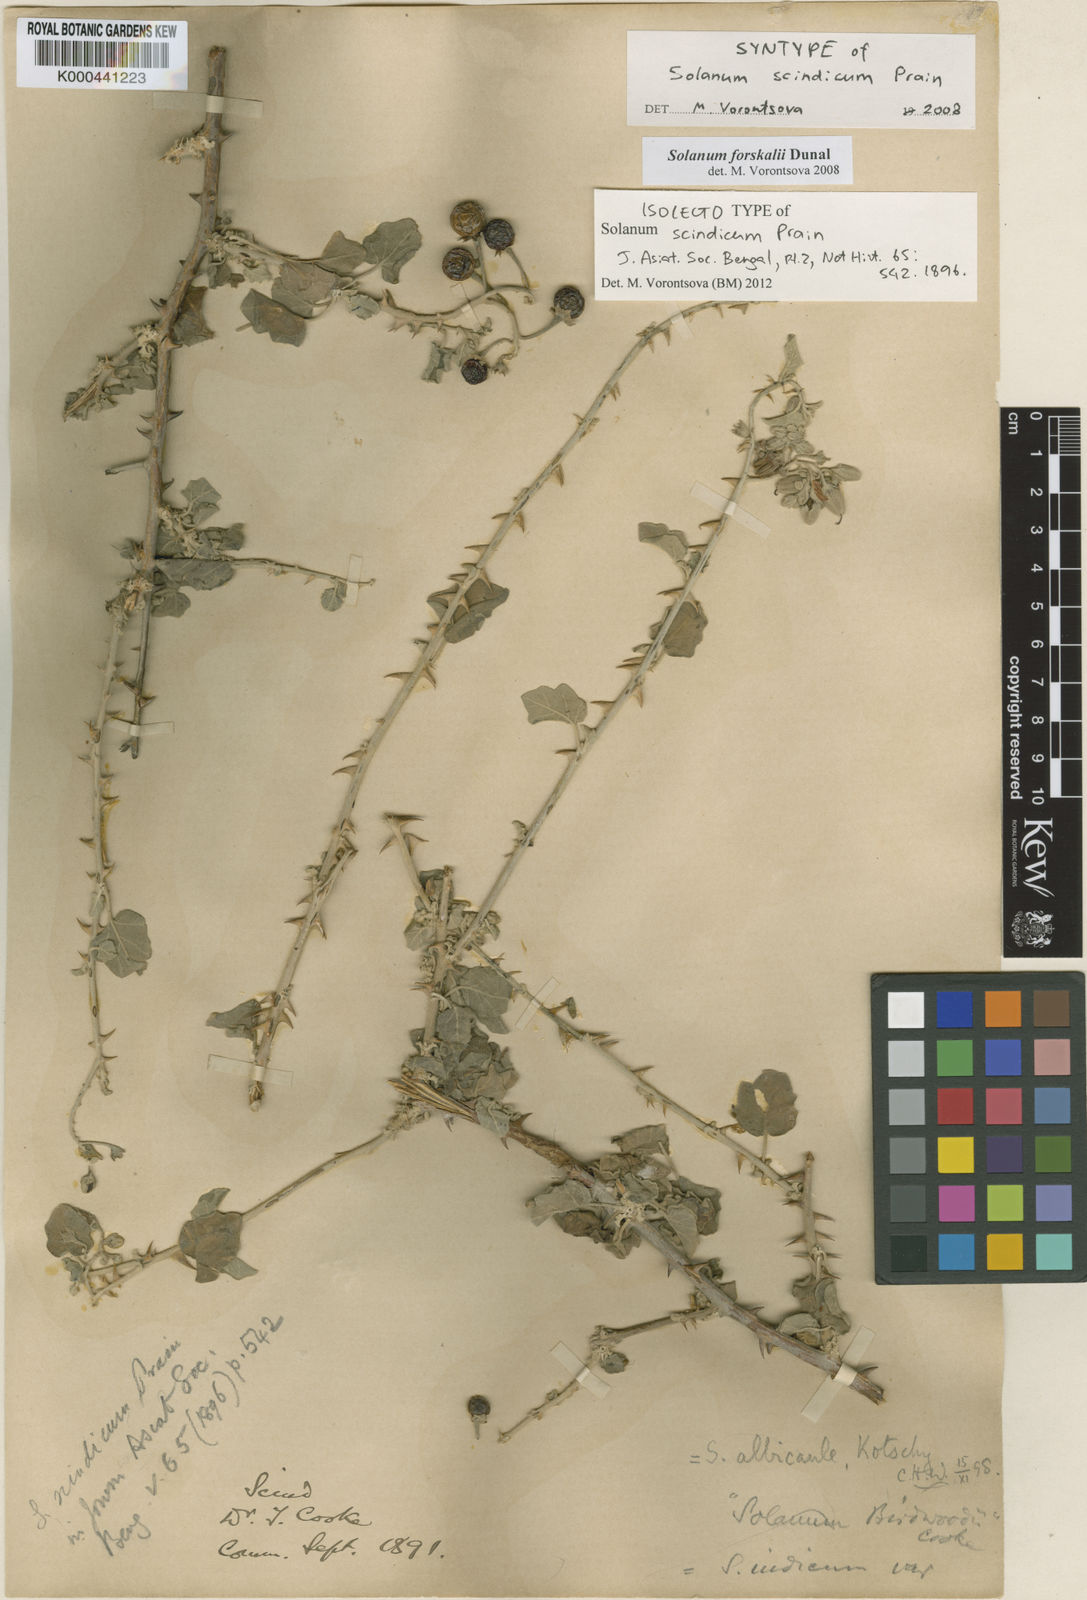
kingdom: Plantae
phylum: Tracheophyta
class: Magnoliopsida
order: Solanales
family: Solanaceae
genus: Solanum
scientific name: Solanum cordatum
